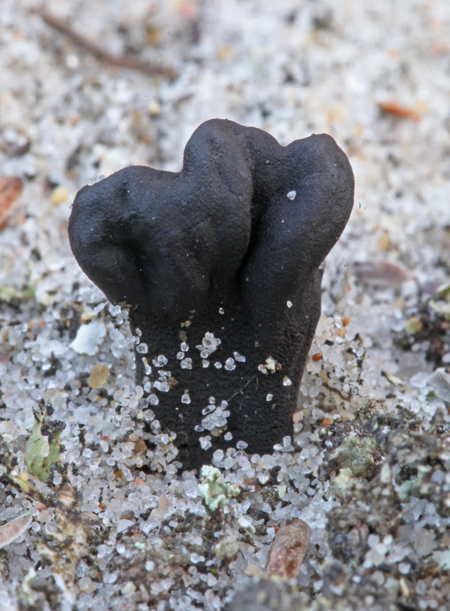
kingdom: Fungi
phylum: Ascomycota
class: Geoglossomycetes
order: Geoglossales
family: Geoglossaceae
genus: Sabuloglossum
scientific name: Sabuloglossum arenarium
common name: klit-jordtunge
